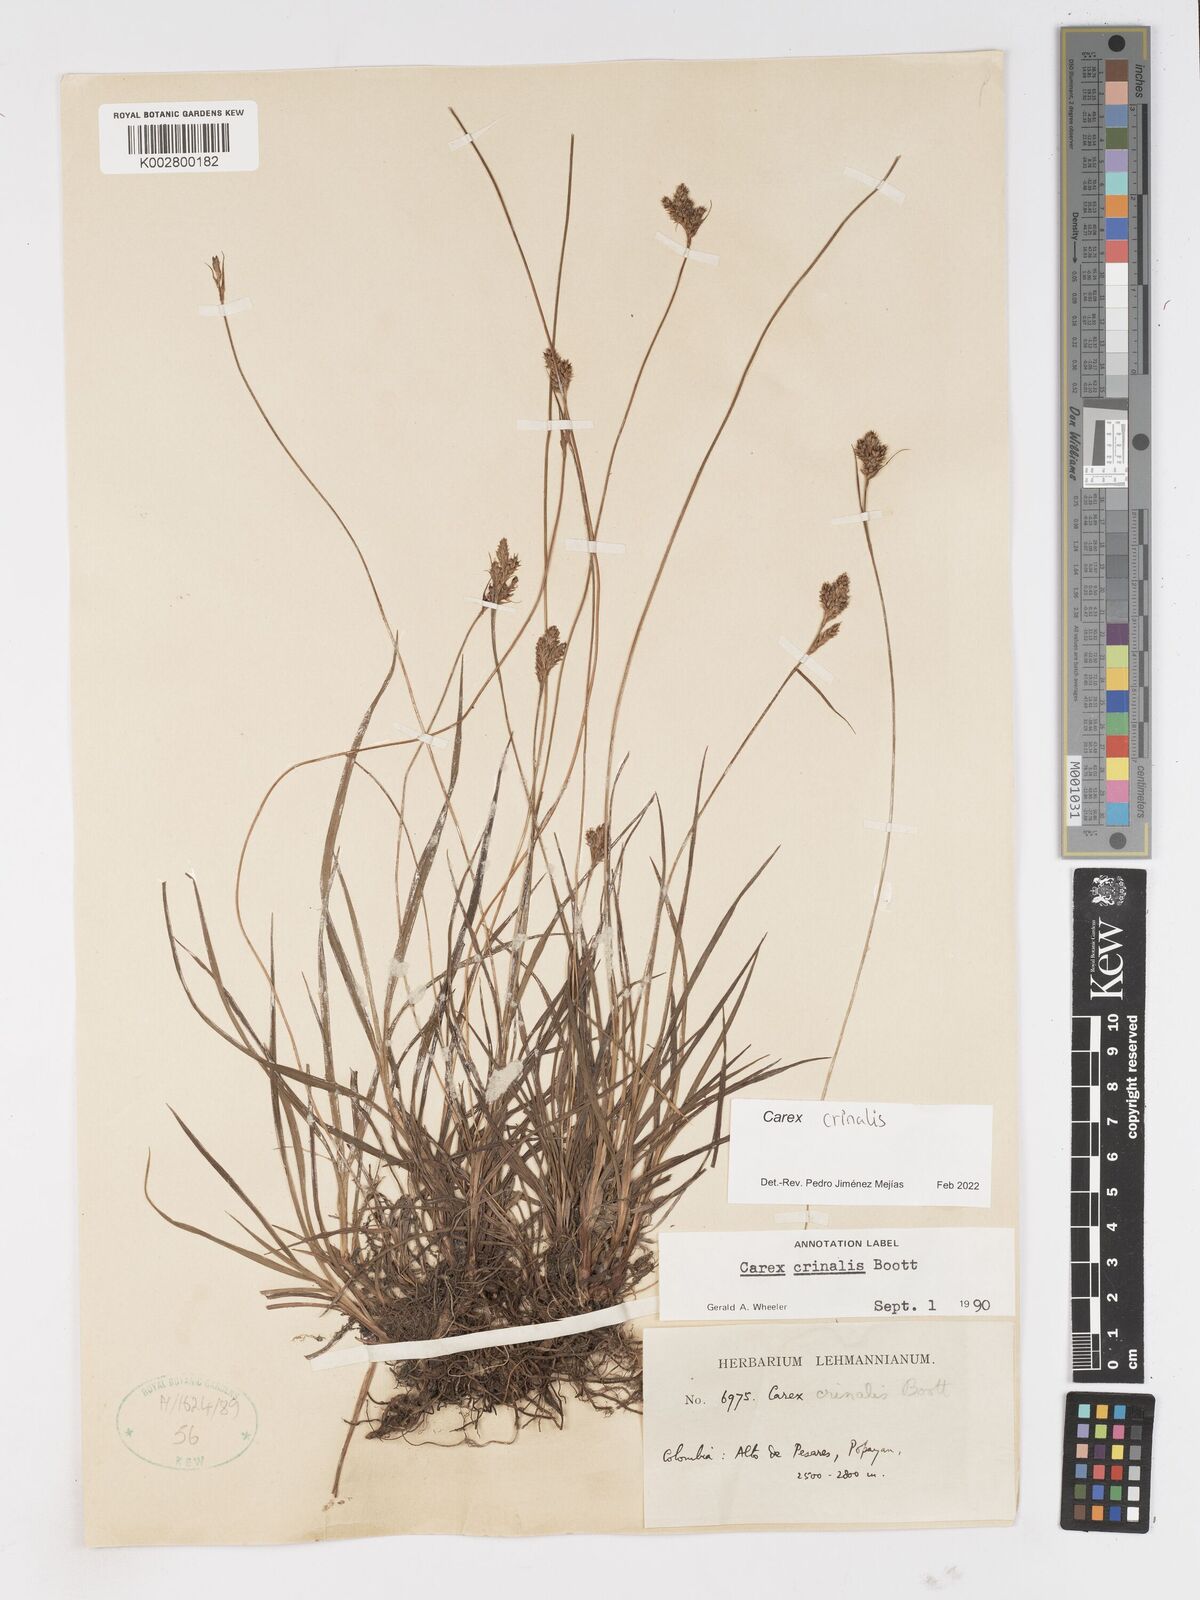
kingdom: Plantae
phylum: Tracheophyta
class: Liliopsida
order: Poales
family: Cyperaceae
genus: Carex
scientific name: Carex crinalis
